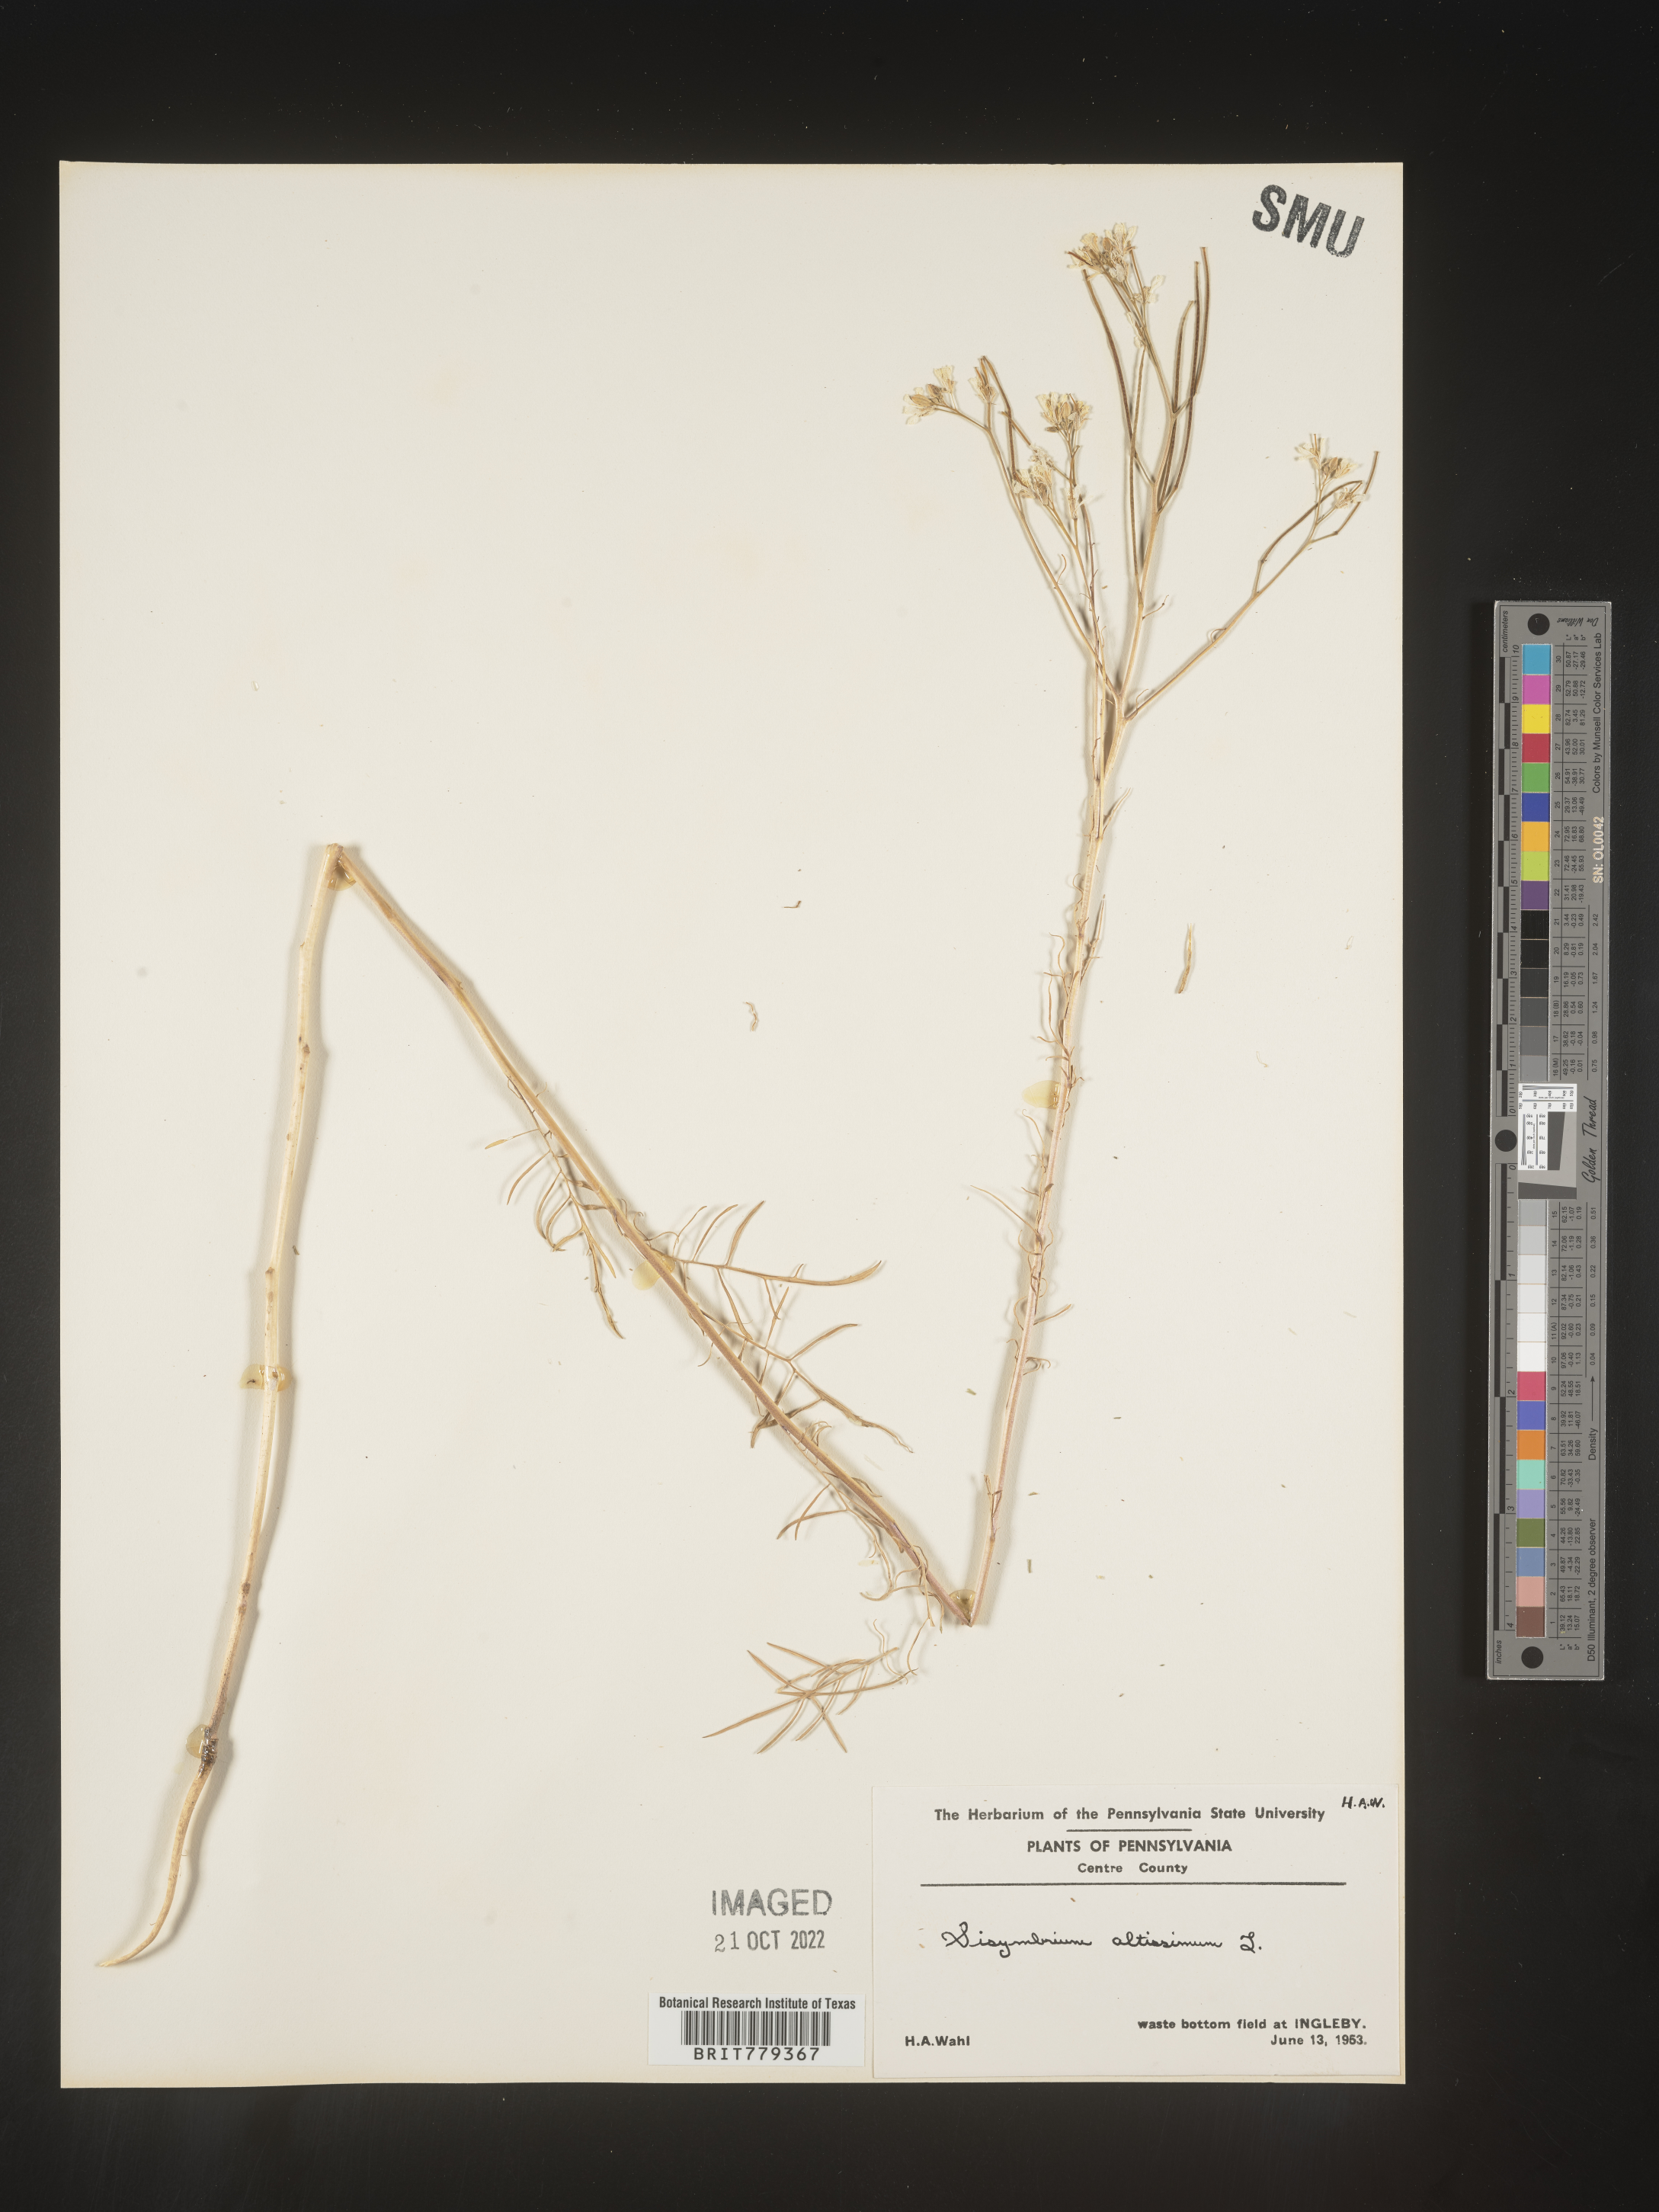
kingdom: Plantae
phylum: Tracheophyta
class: Magnoliopsida
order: Brassicales
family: Brassicaceae
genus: Sisymbrium
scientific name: Sisymbrium altissimum
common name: Tall rocket
